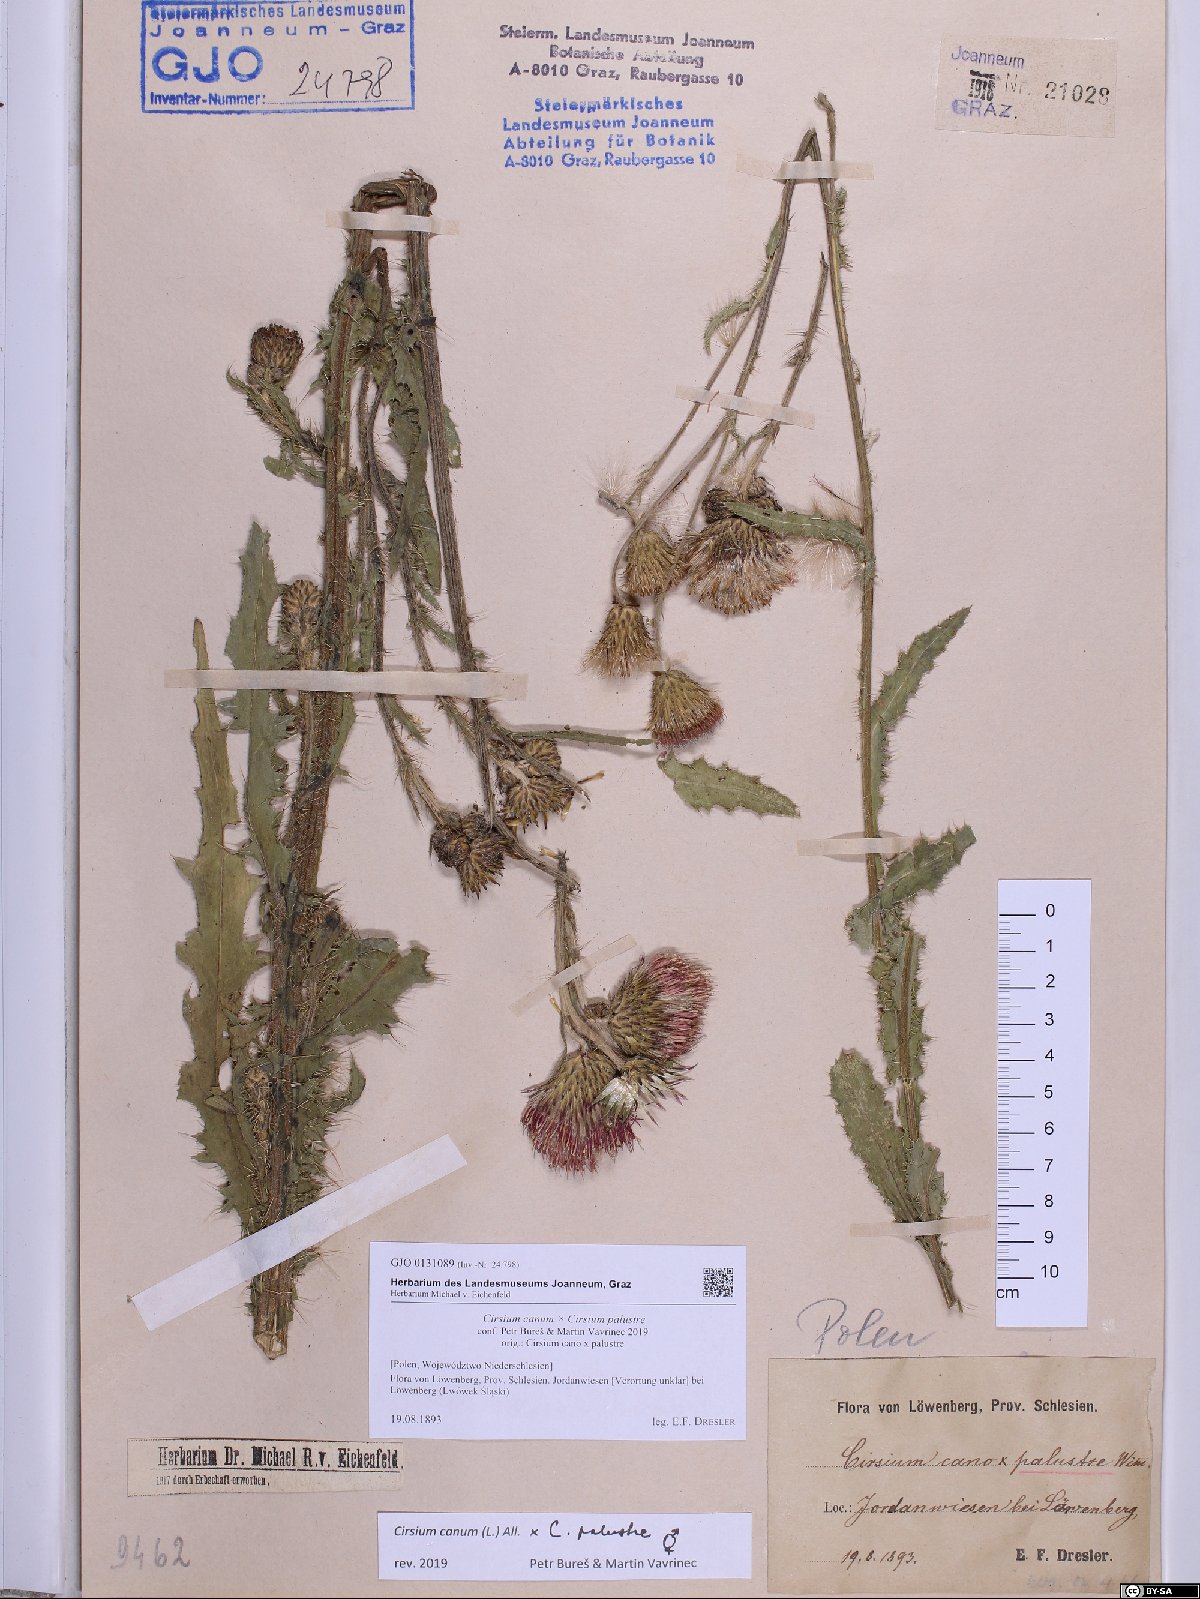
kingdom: Plantae
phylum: Tracheophyta
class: Magnoliopsida
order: Asterales
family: Asteraceae
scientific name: Asteraceae
